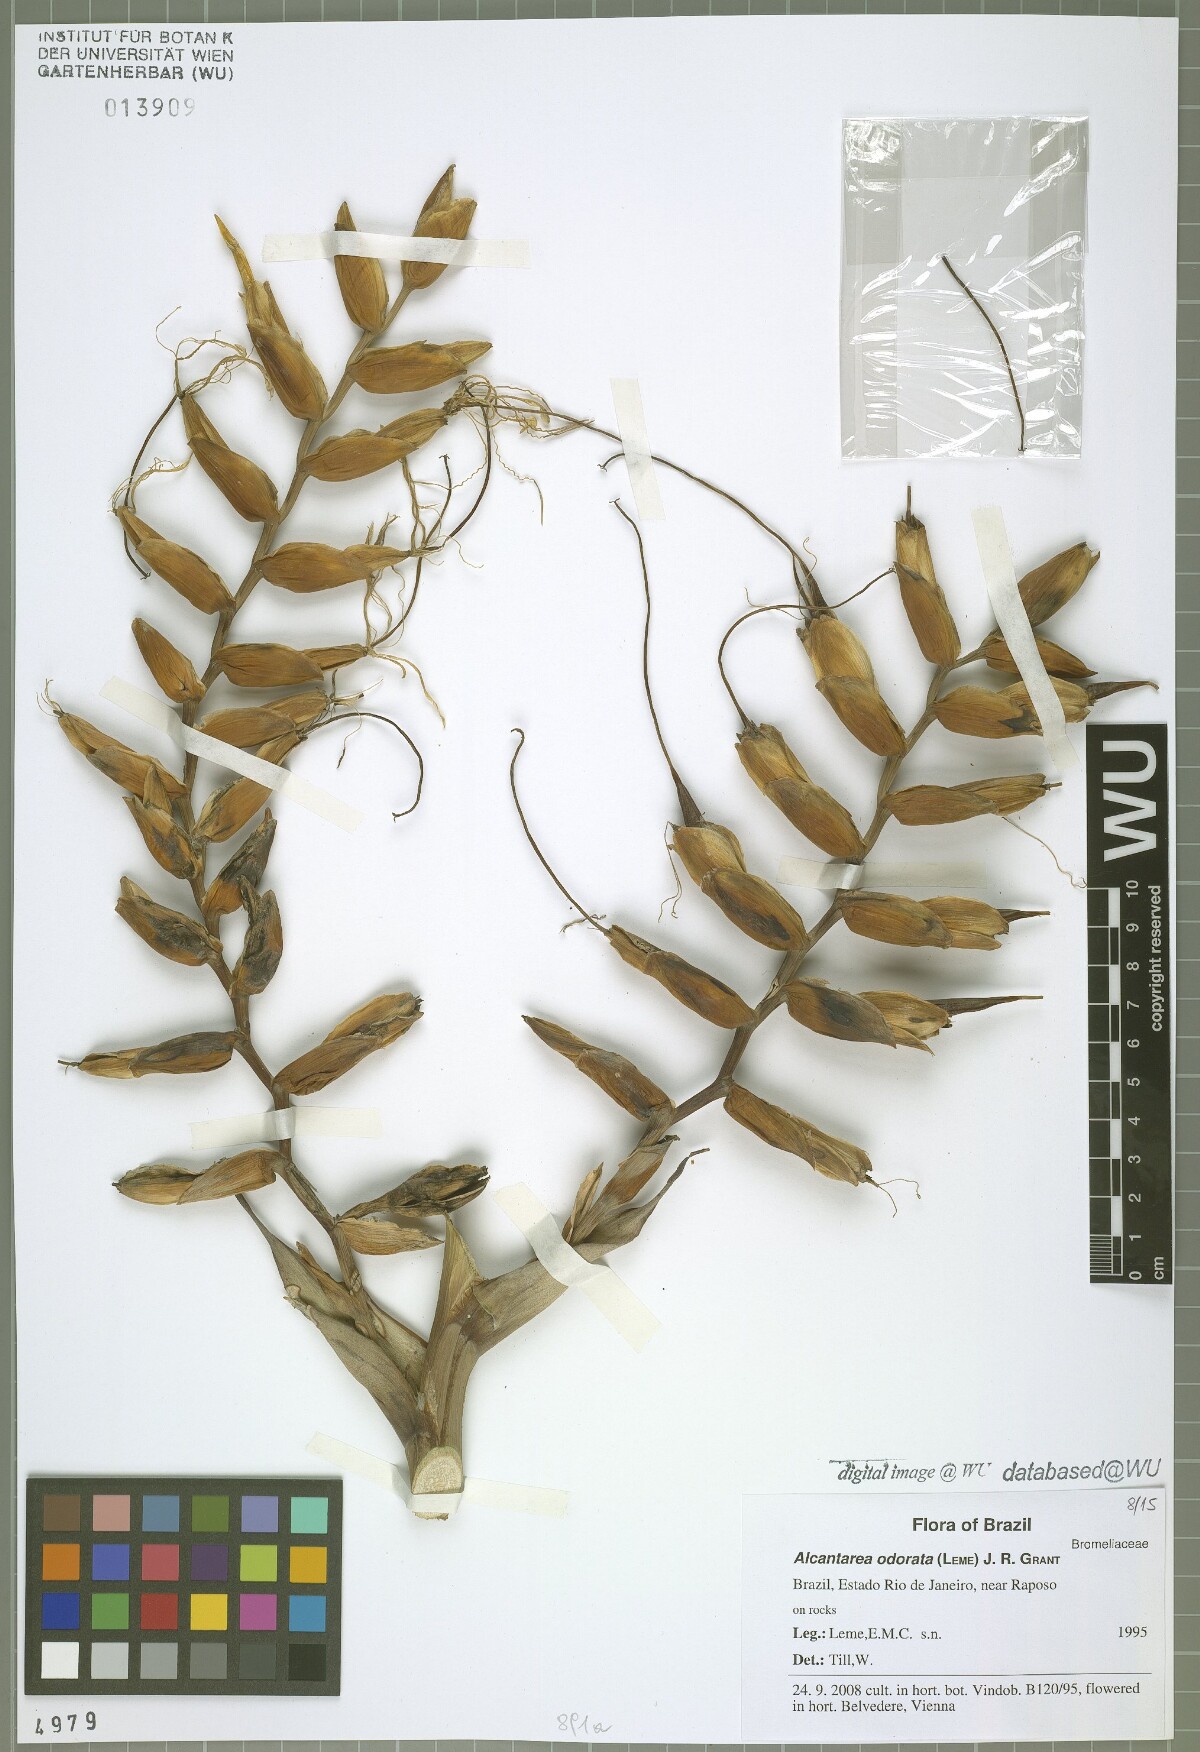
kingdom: Plantae
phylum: Tracheophyta
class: Liliopsida
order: Poales
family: Bromeliaceae
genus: Alcantarea
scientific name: Alcantarea odorata
